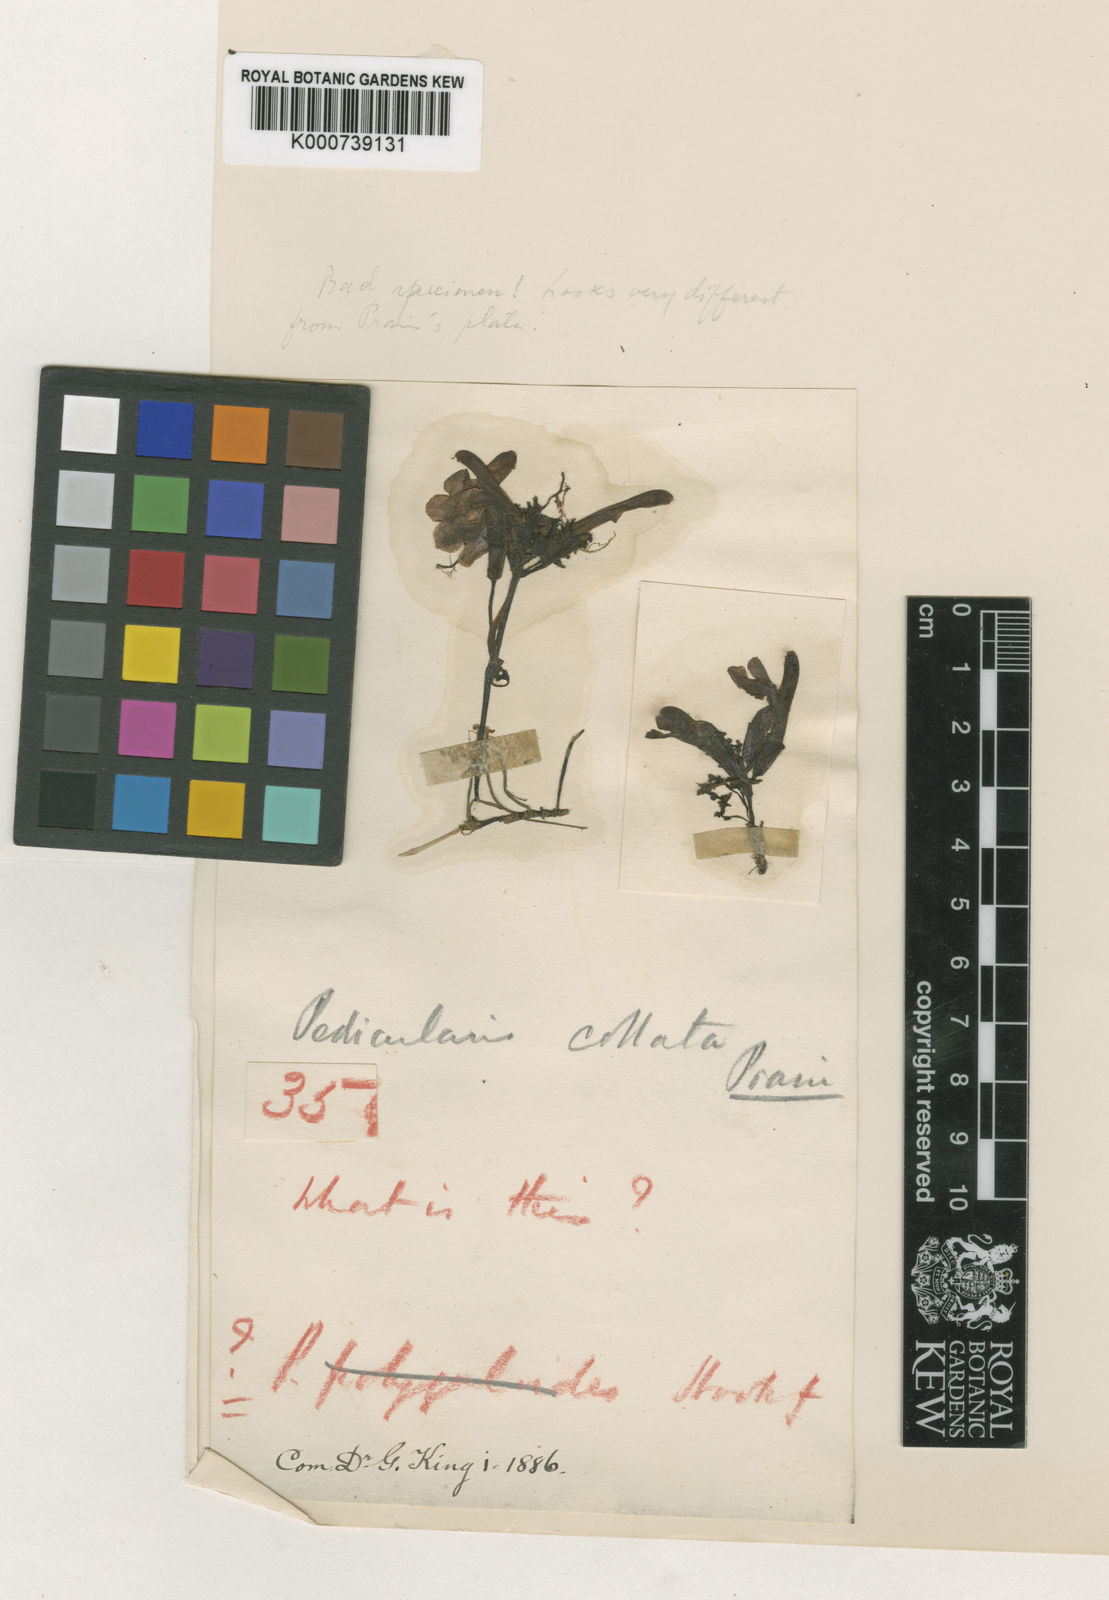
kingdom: Plantae
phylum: Tracheophyta
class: Magnoliopsida
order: Lamiales
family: Orobanchaceae
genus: Pedicularis
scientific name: Pedicularis collata
